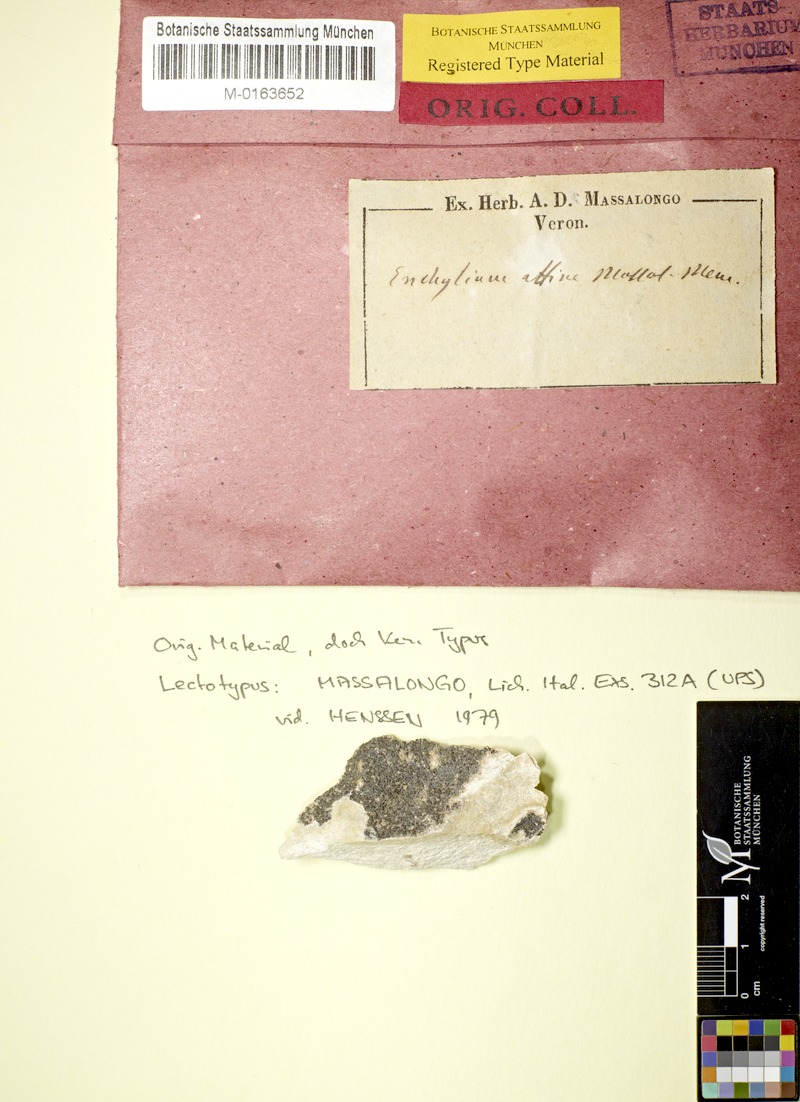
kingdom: Fungi
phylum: Ascomycota
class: Lichinomycetes
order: Lichinales
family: Lichinaceae
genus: Pterygiopsis
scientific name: Pterygiopsis affinis
